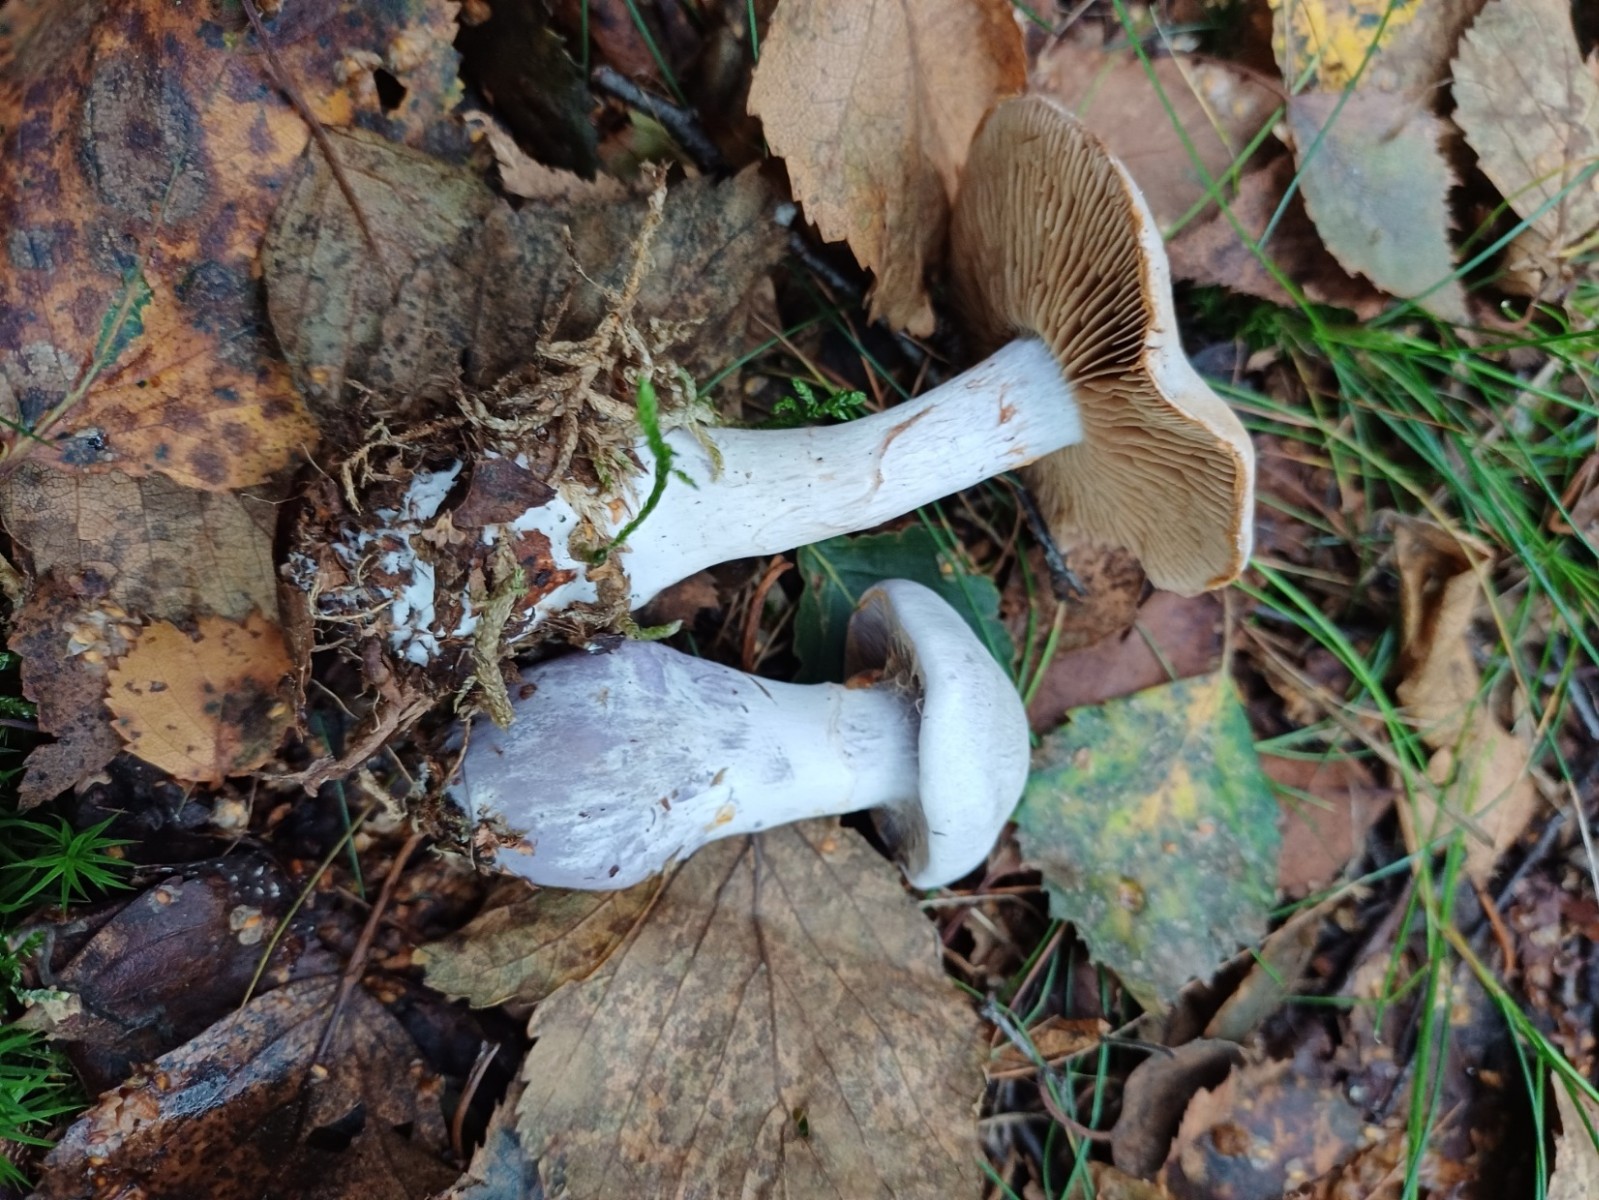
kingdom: Fungi
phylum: Basidiomycota
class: Agaricomycetes
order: Agaricales
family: Cortinariaceae
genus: Cortinarius
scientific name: Cortinarius alboviolaceus
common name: lysviolet slørhat
